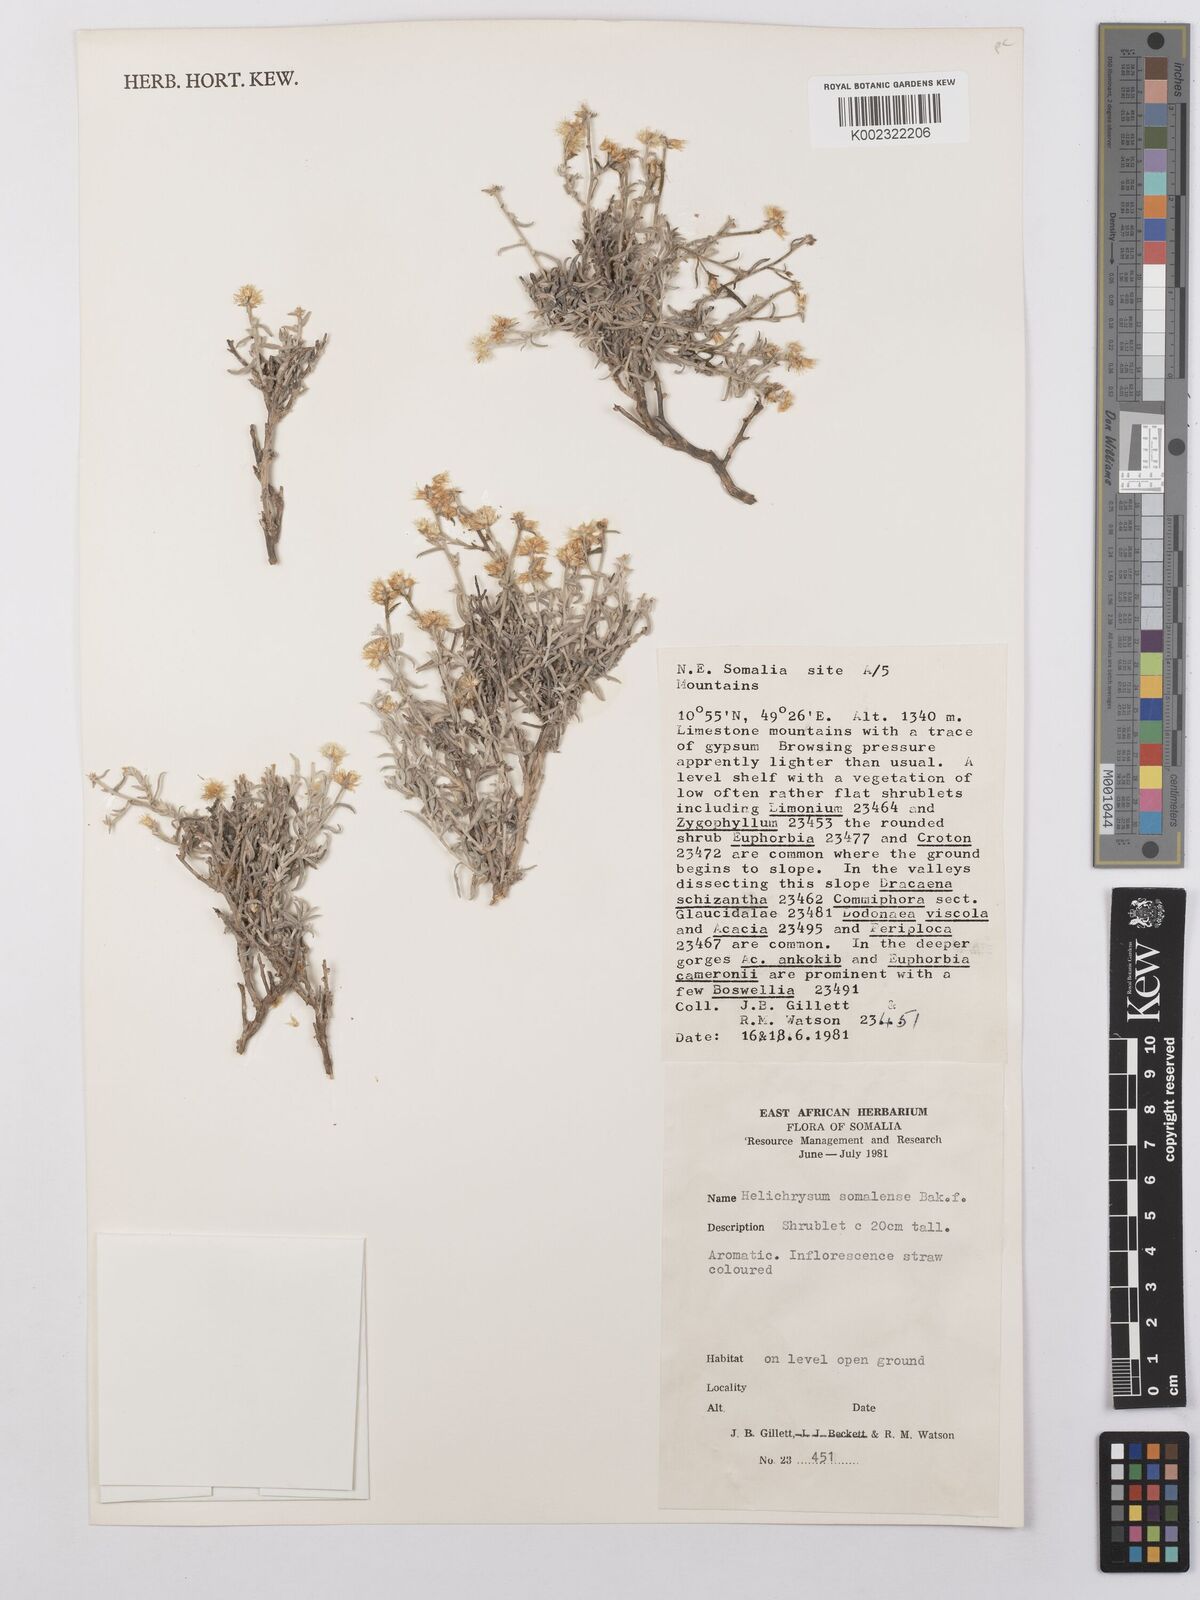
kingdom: Plantae
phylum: Tracheophyta
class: Magnoliopsida
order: Asterales
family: Asteraceae
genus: Helichrysum
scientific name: Helichrysum somalense
